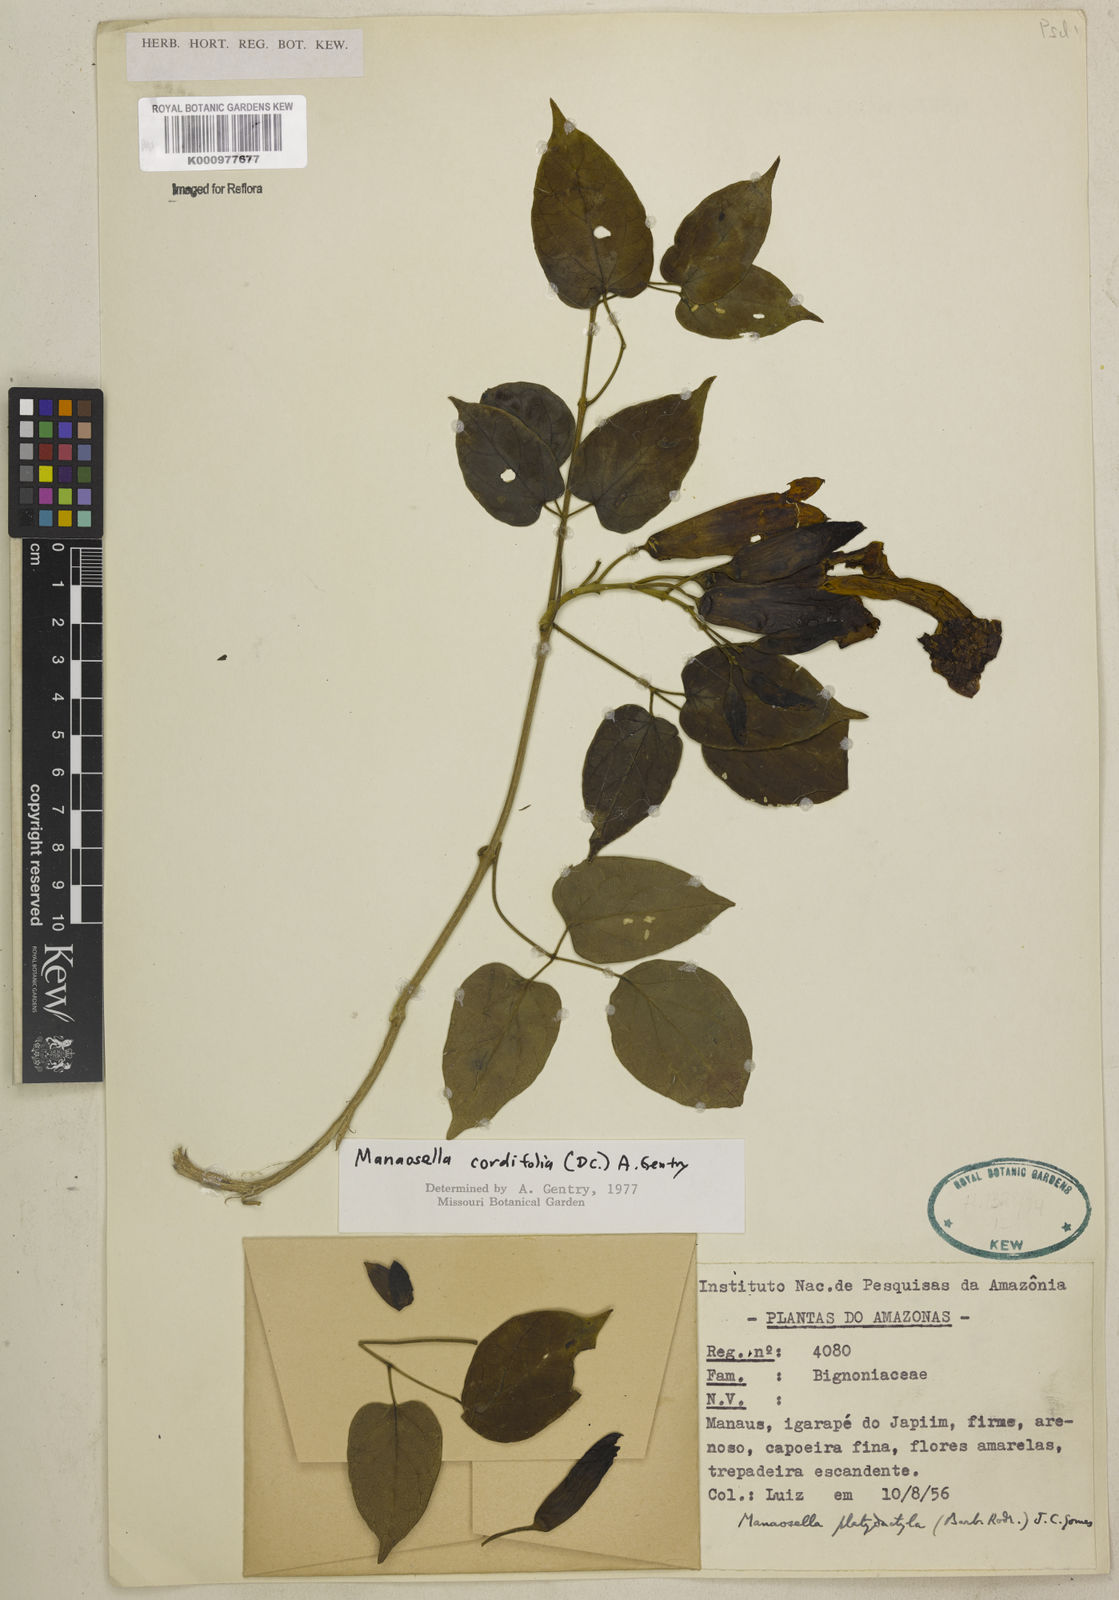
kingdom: Plantae
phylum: Tracheophyta
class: Magnoliopsida
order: Lamiales
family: Bignoniaceae
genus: Manaosella
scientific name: Manaosella cordifolia
